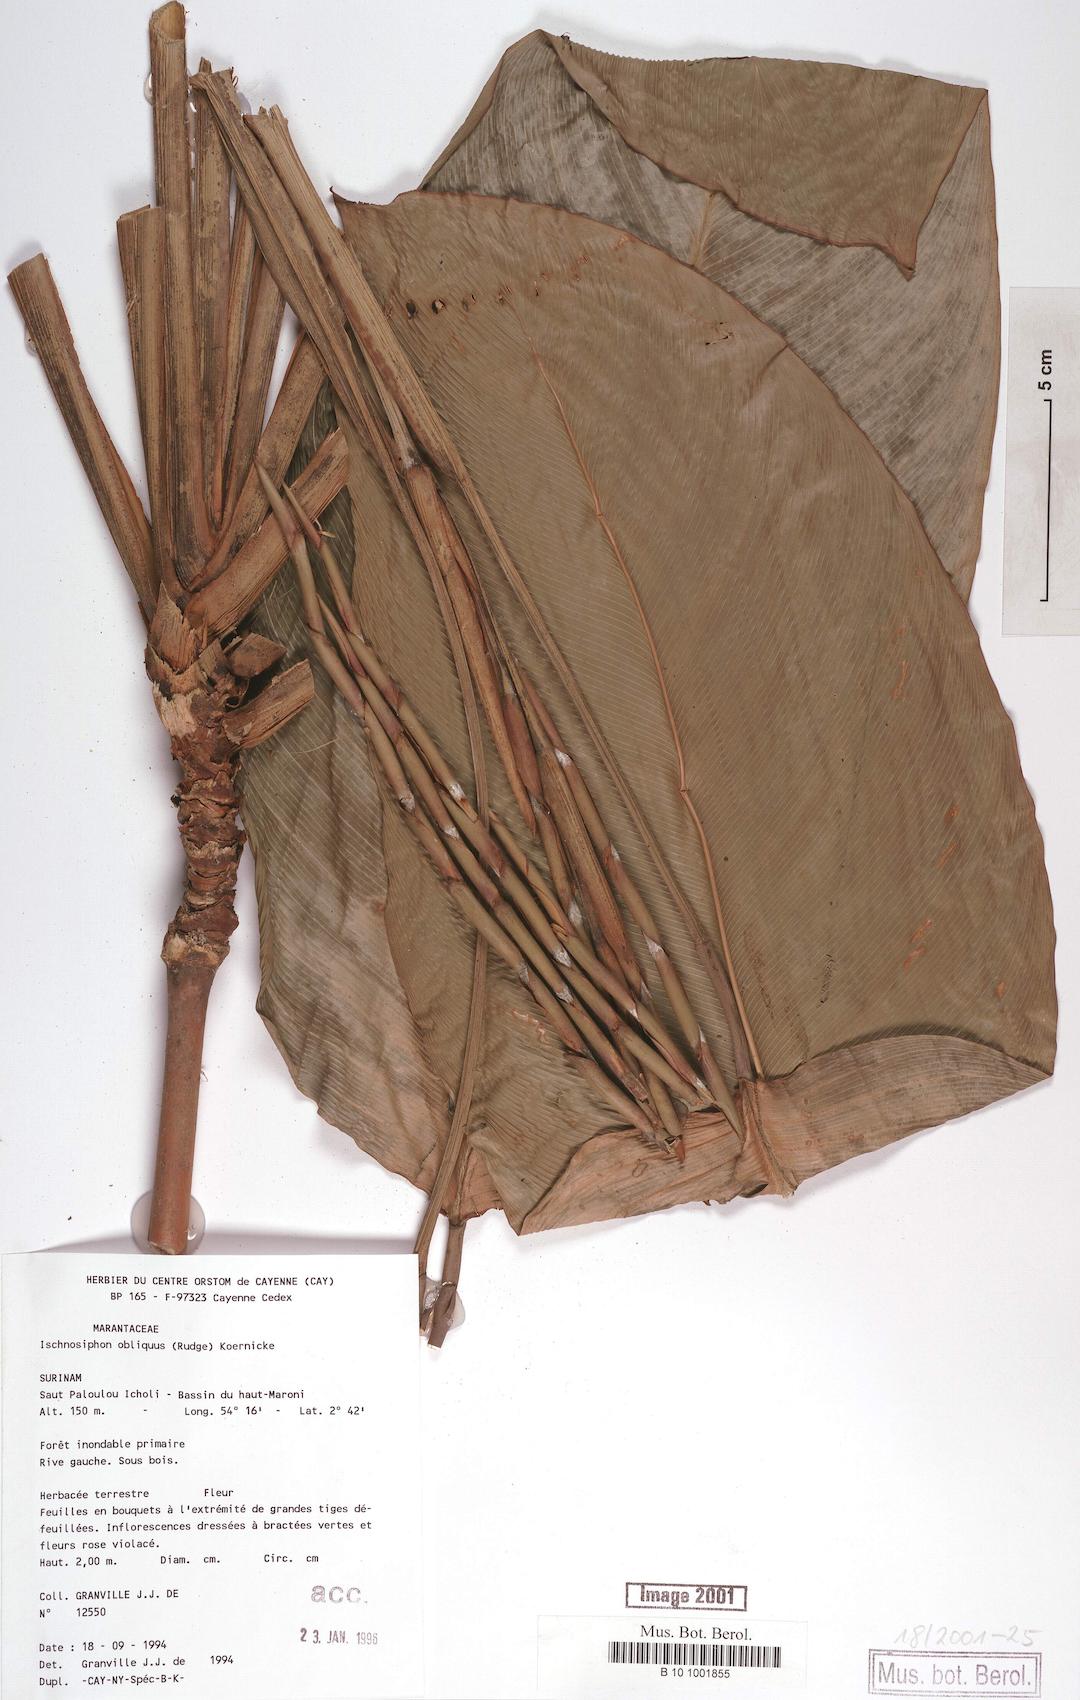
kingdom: Plantae
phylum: Tracheophyta
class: Liliopsida
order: Zingiberales
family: Marantaceae
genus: Ischnosiphon
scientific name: Ischnosiphon obliquus
